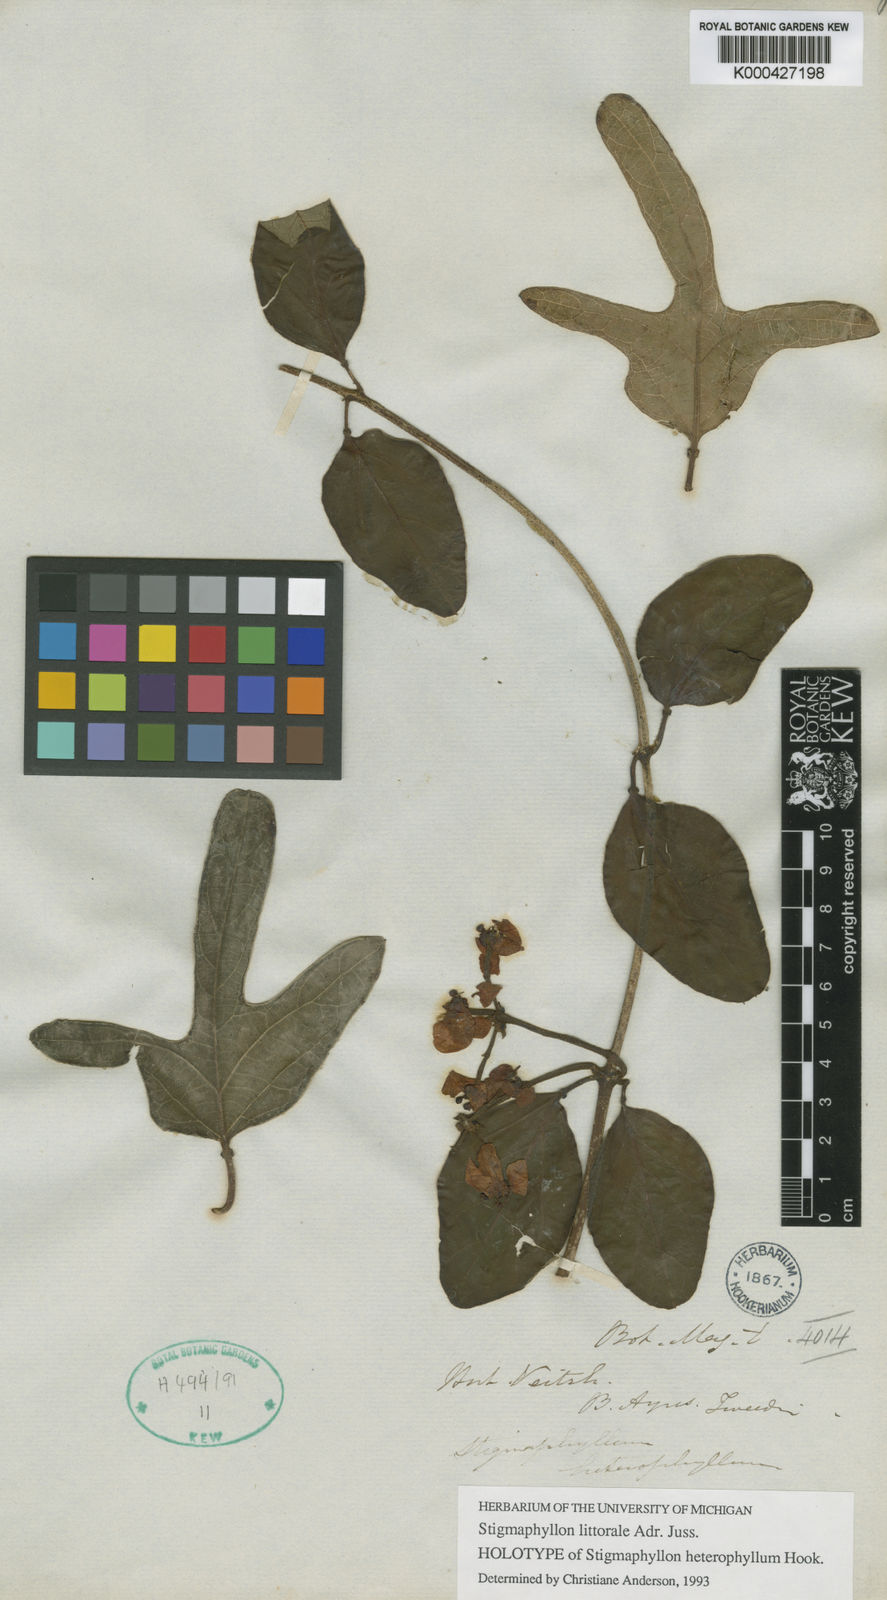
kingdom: Plantae
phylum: Tracheophyta
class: Magnoliopsida
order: Malpighiales
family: Malpighiaceae
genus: Stigmaphyllon
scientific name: Stigmaphyllon bonariense
